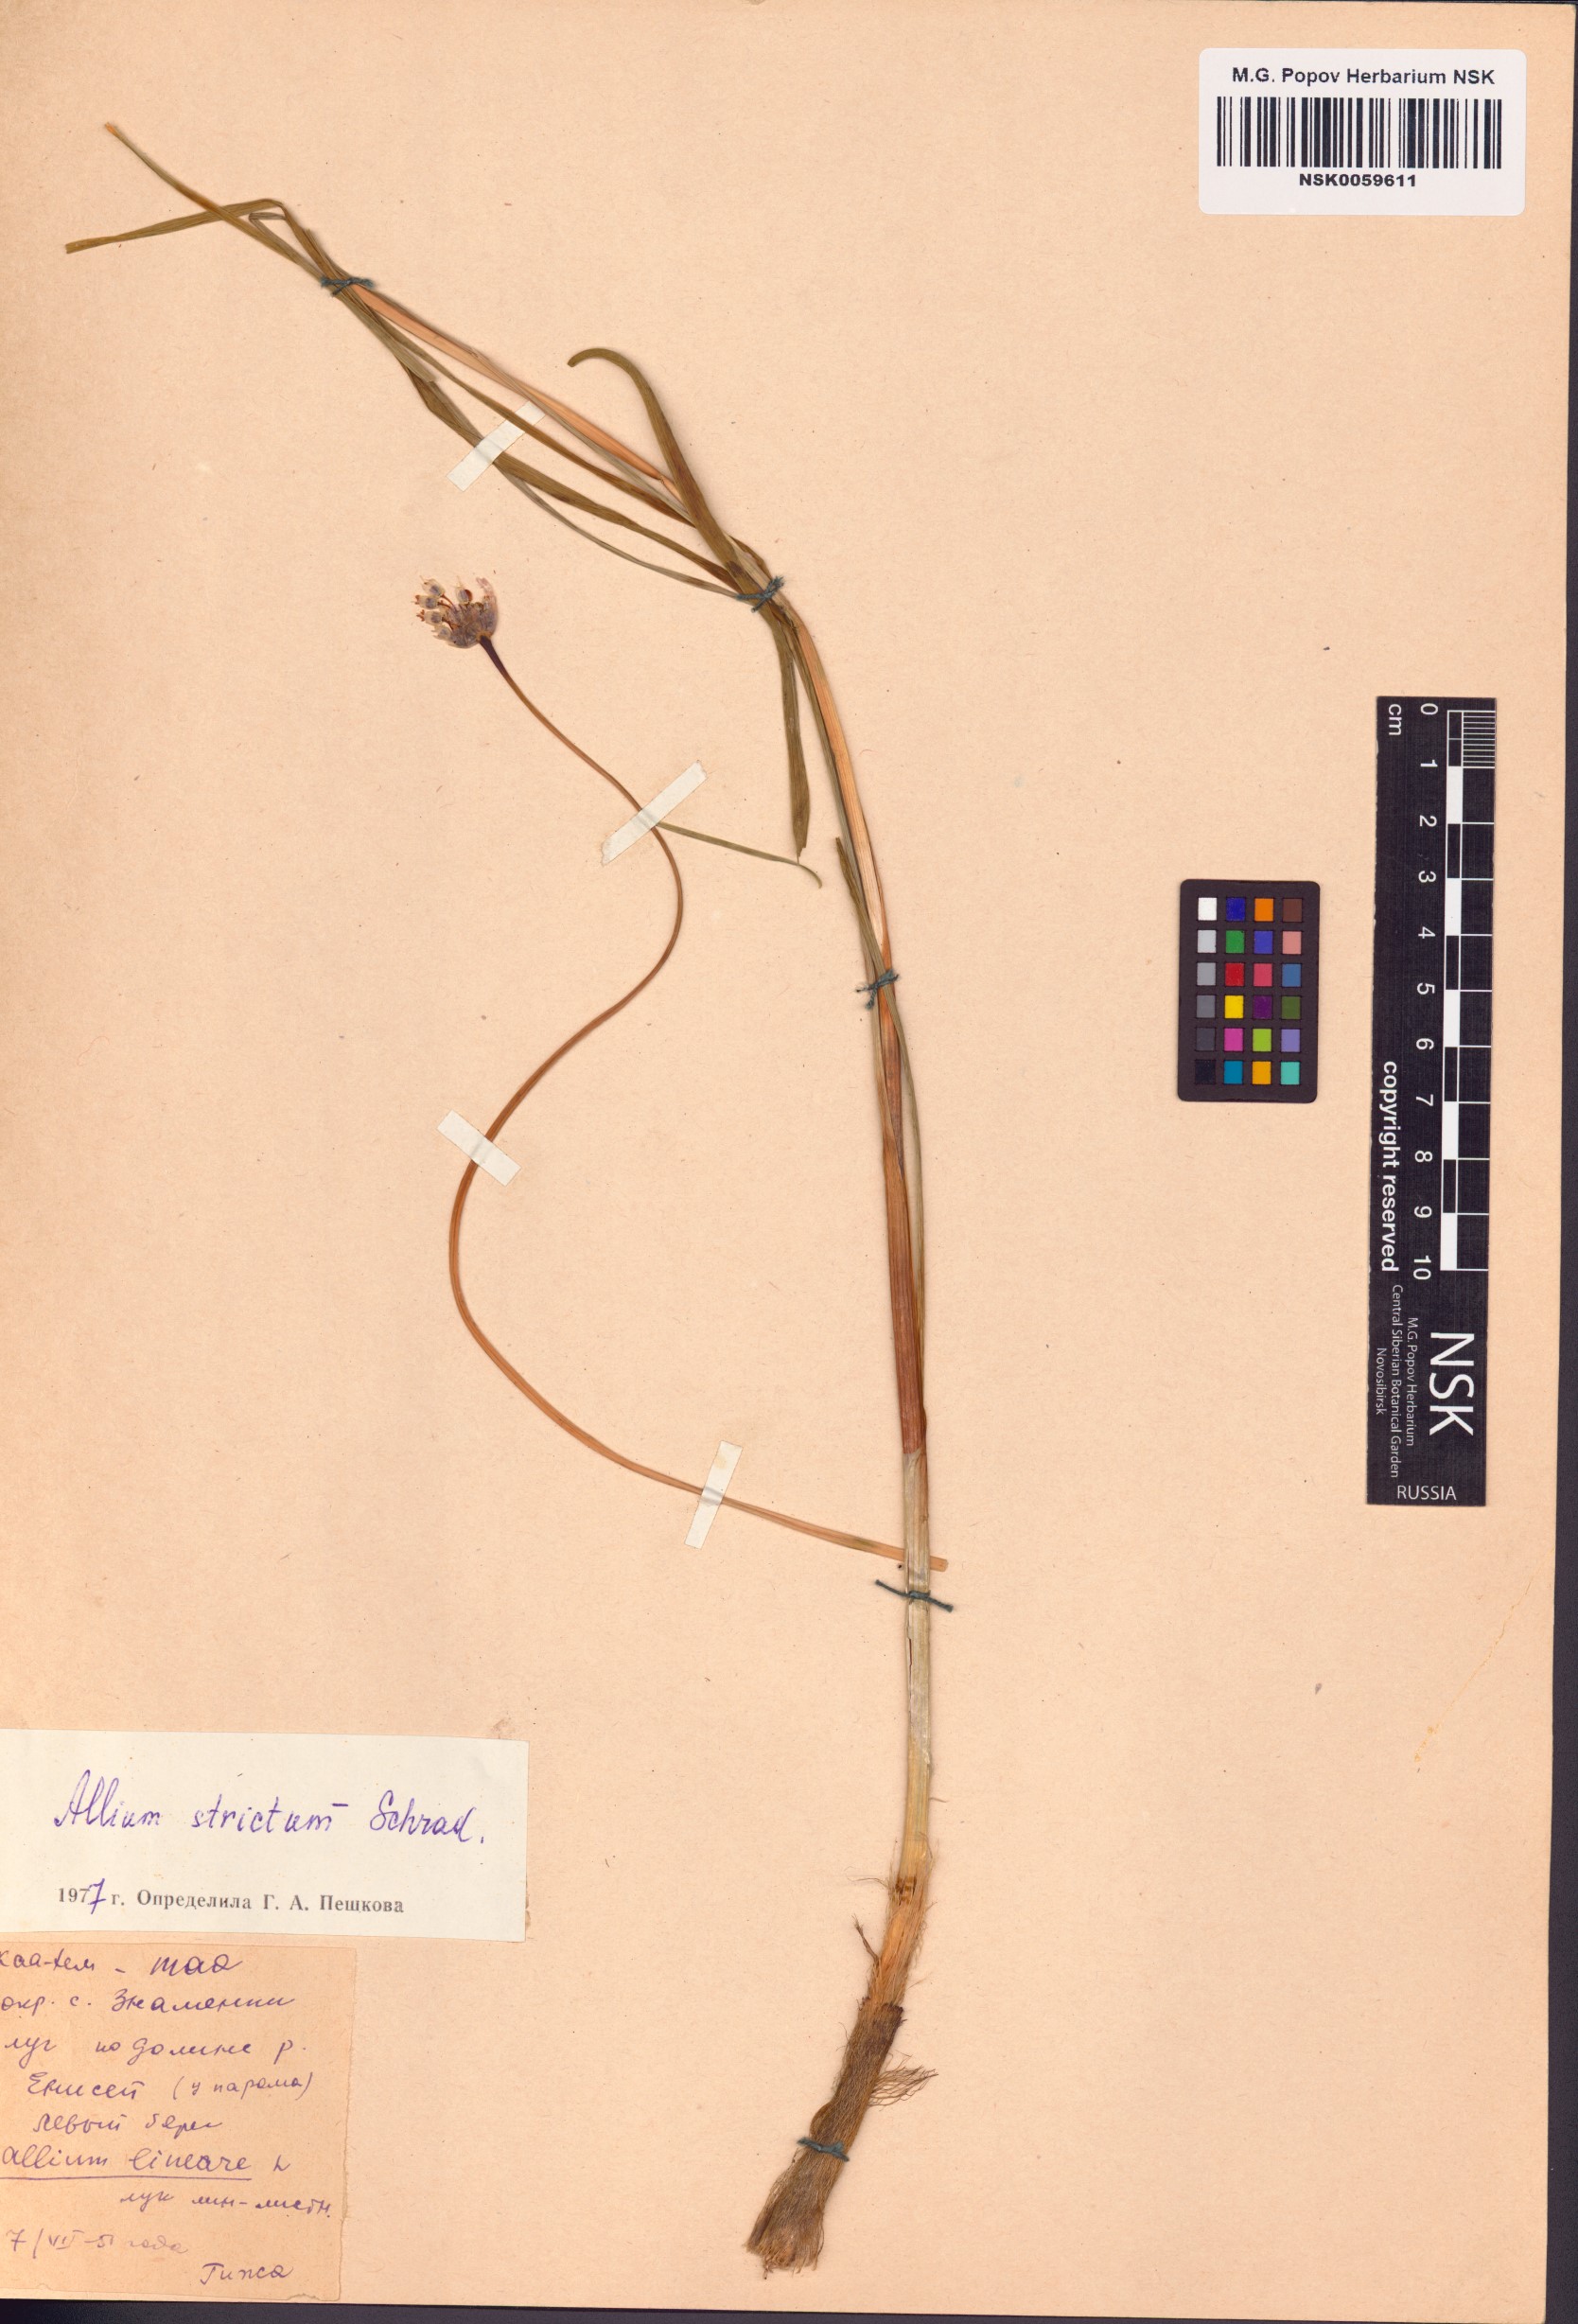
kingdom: Plantae
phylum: Tracheophyta
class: Liliopsida
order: Asparagales
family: Amaryllidaceae
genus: Allium
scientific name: Allium strictum
